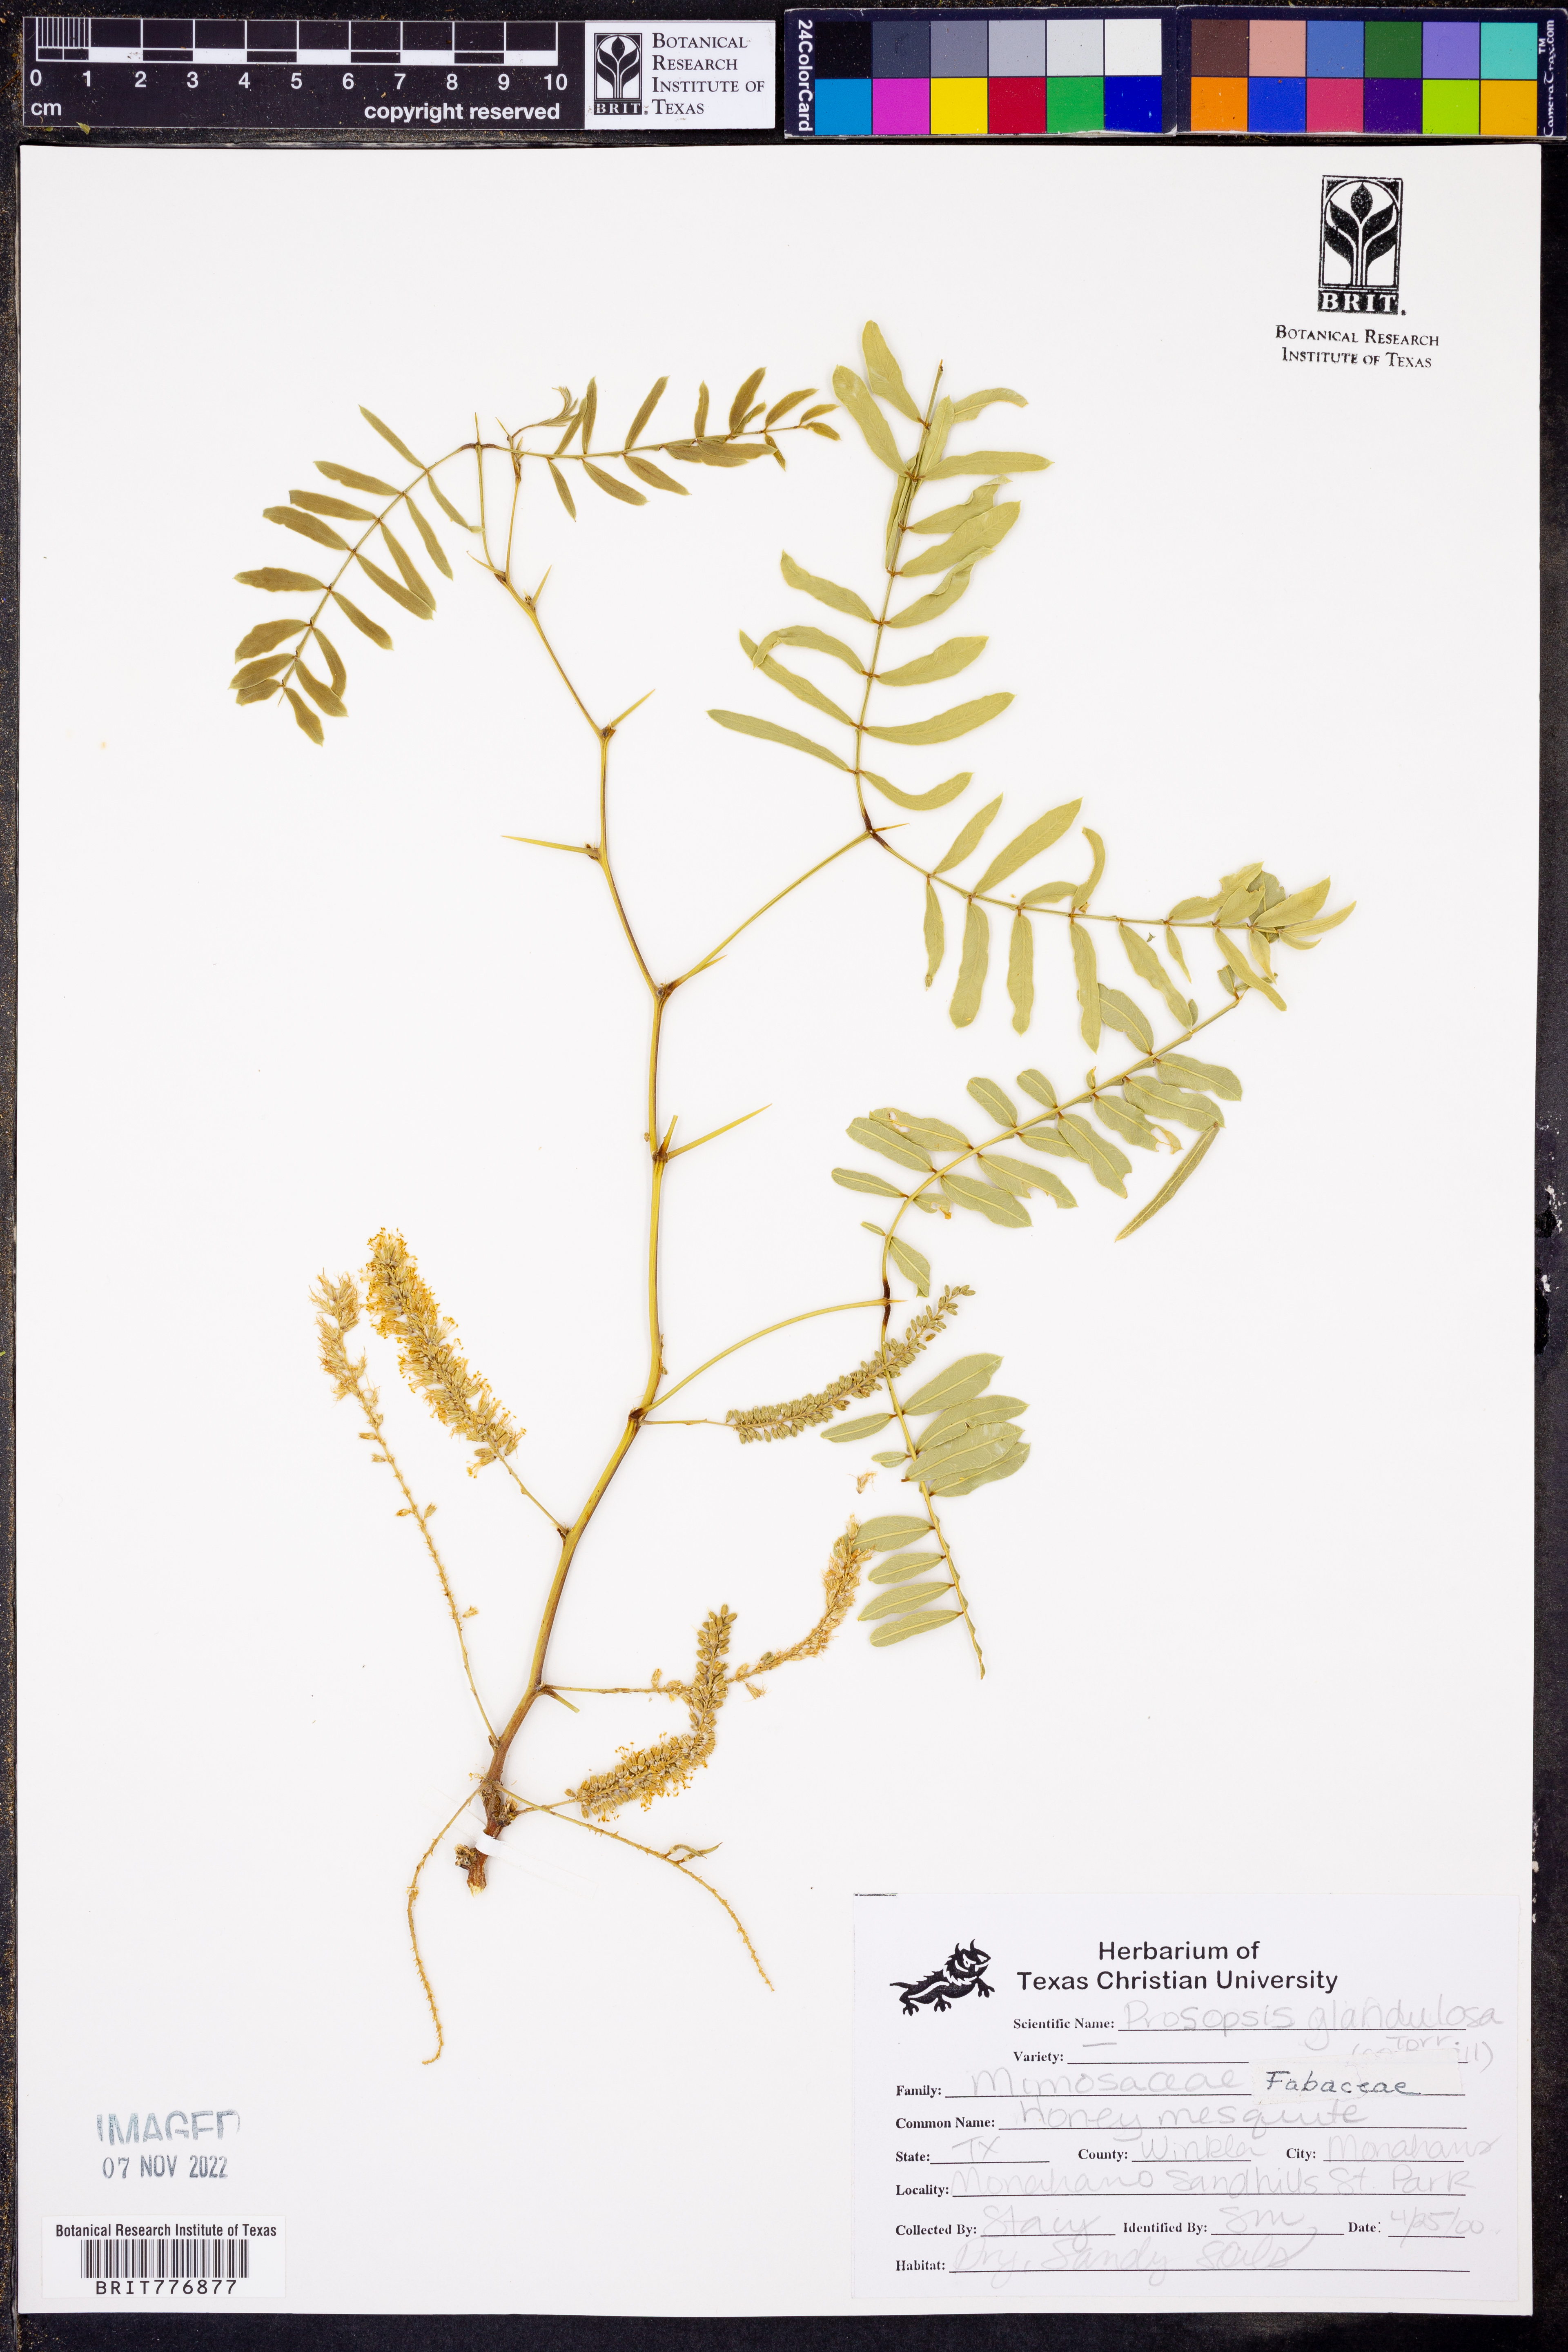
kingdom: Plantae
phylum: Tracheophyta
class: Magnoliopsida
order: Fabales
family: Fabaceae
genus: Prosopis
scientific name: Prosopis glandulosa
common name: Honey mesquite
